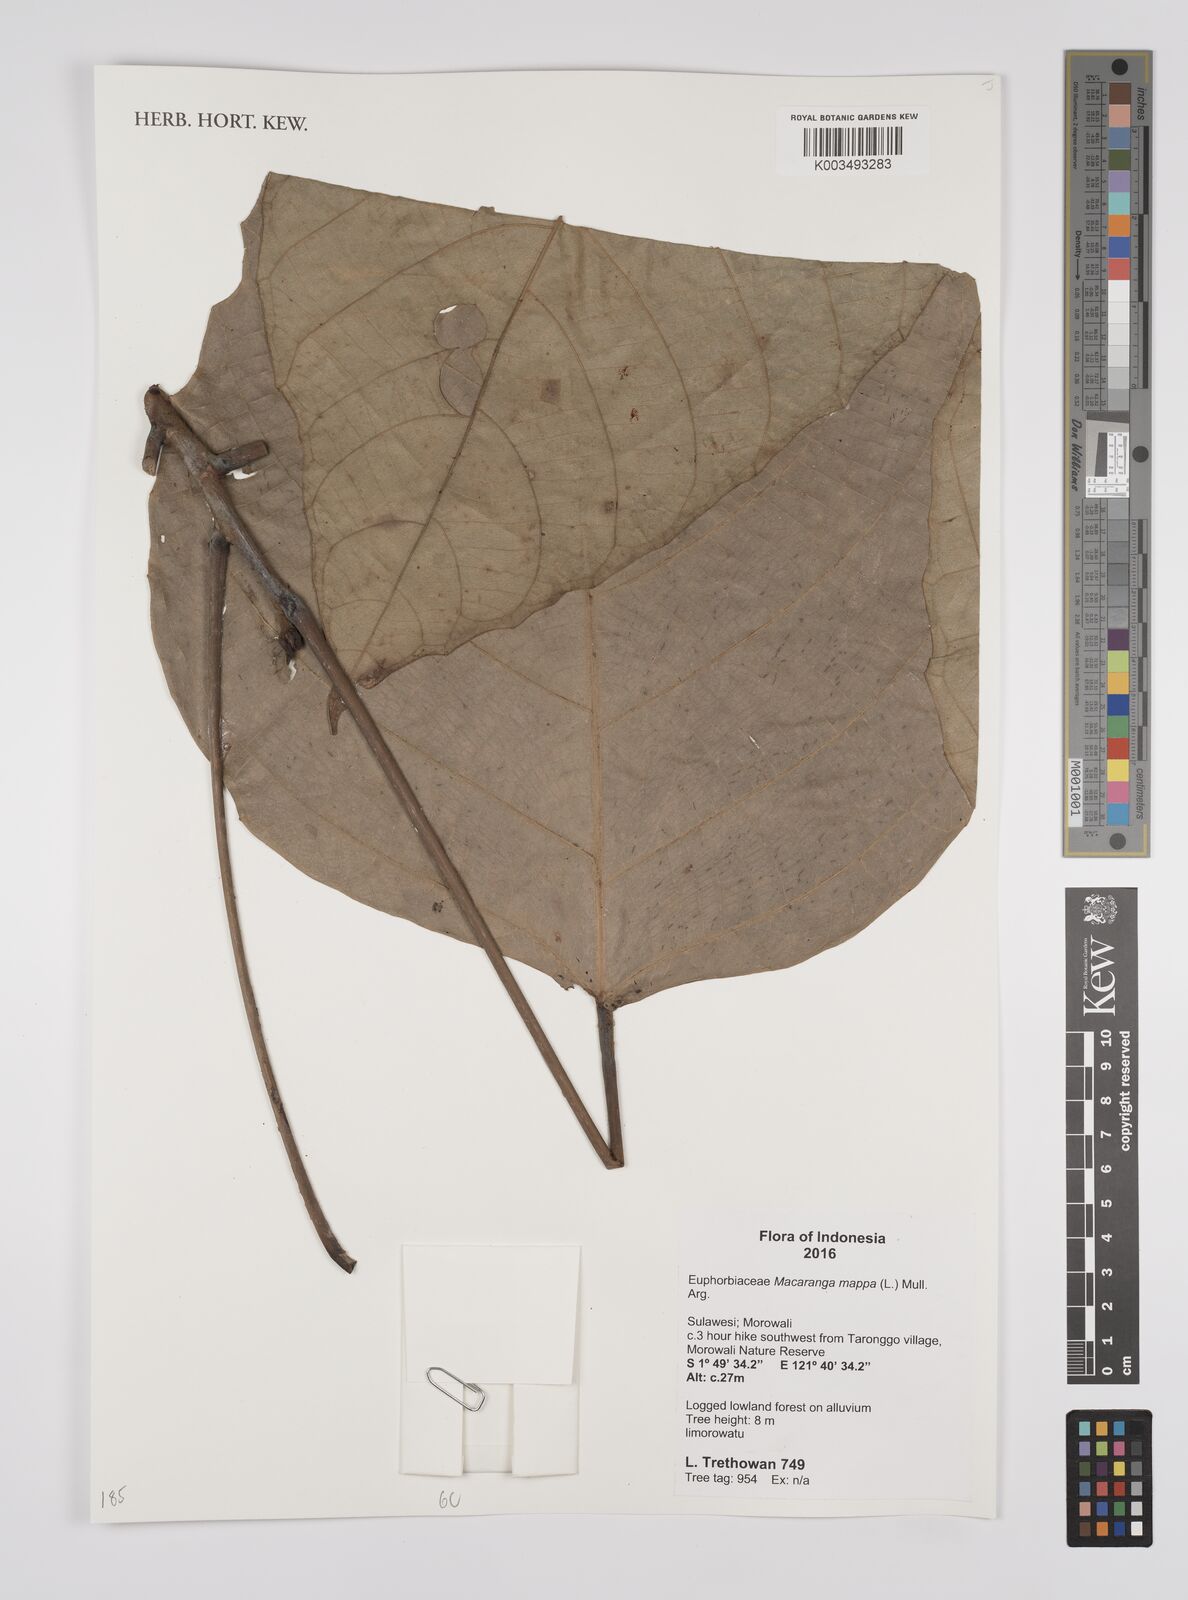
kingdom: Plantae
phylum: Tracheophyta
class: Magnoliopsida
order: Malpighiales
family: Euphorbiaceae
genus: Macaranga
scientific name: Macaranga mappa
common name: Pengua
